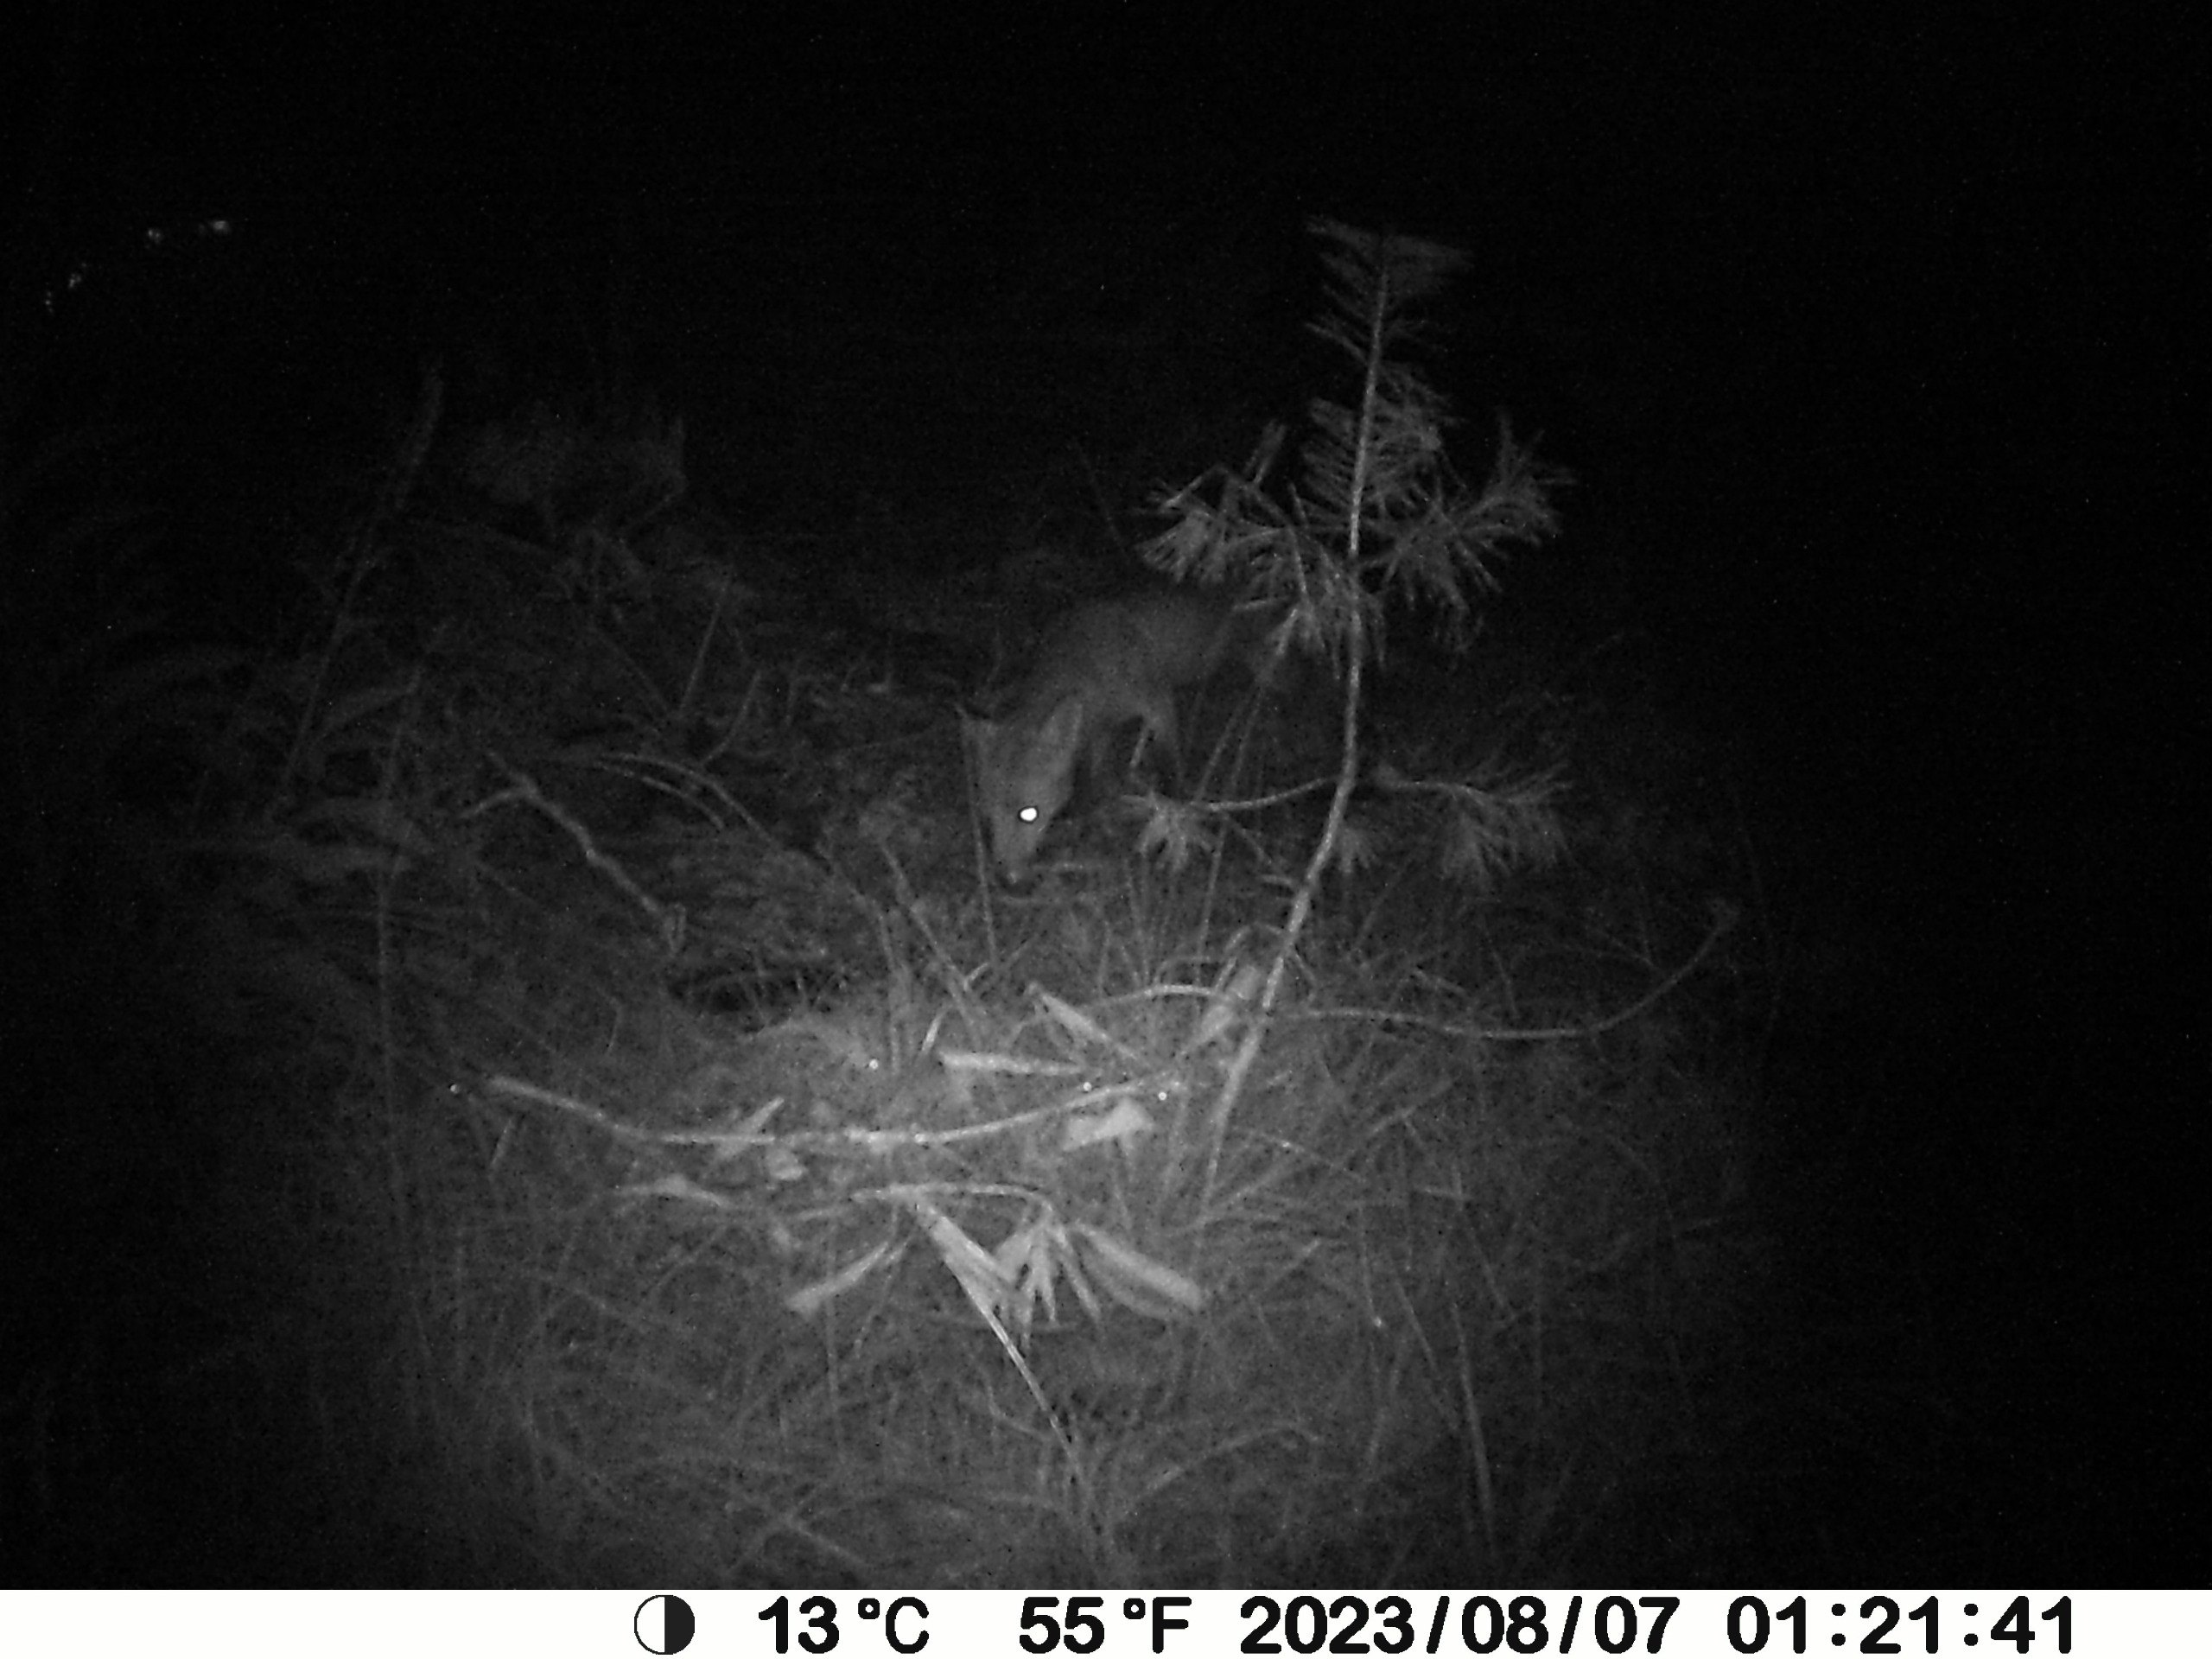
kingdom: Animalia
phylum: Chordata
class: Mammalia
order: Carnivora
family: Canidae
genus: Vulpes
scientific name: Vulpes vulpes
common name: Ræv
